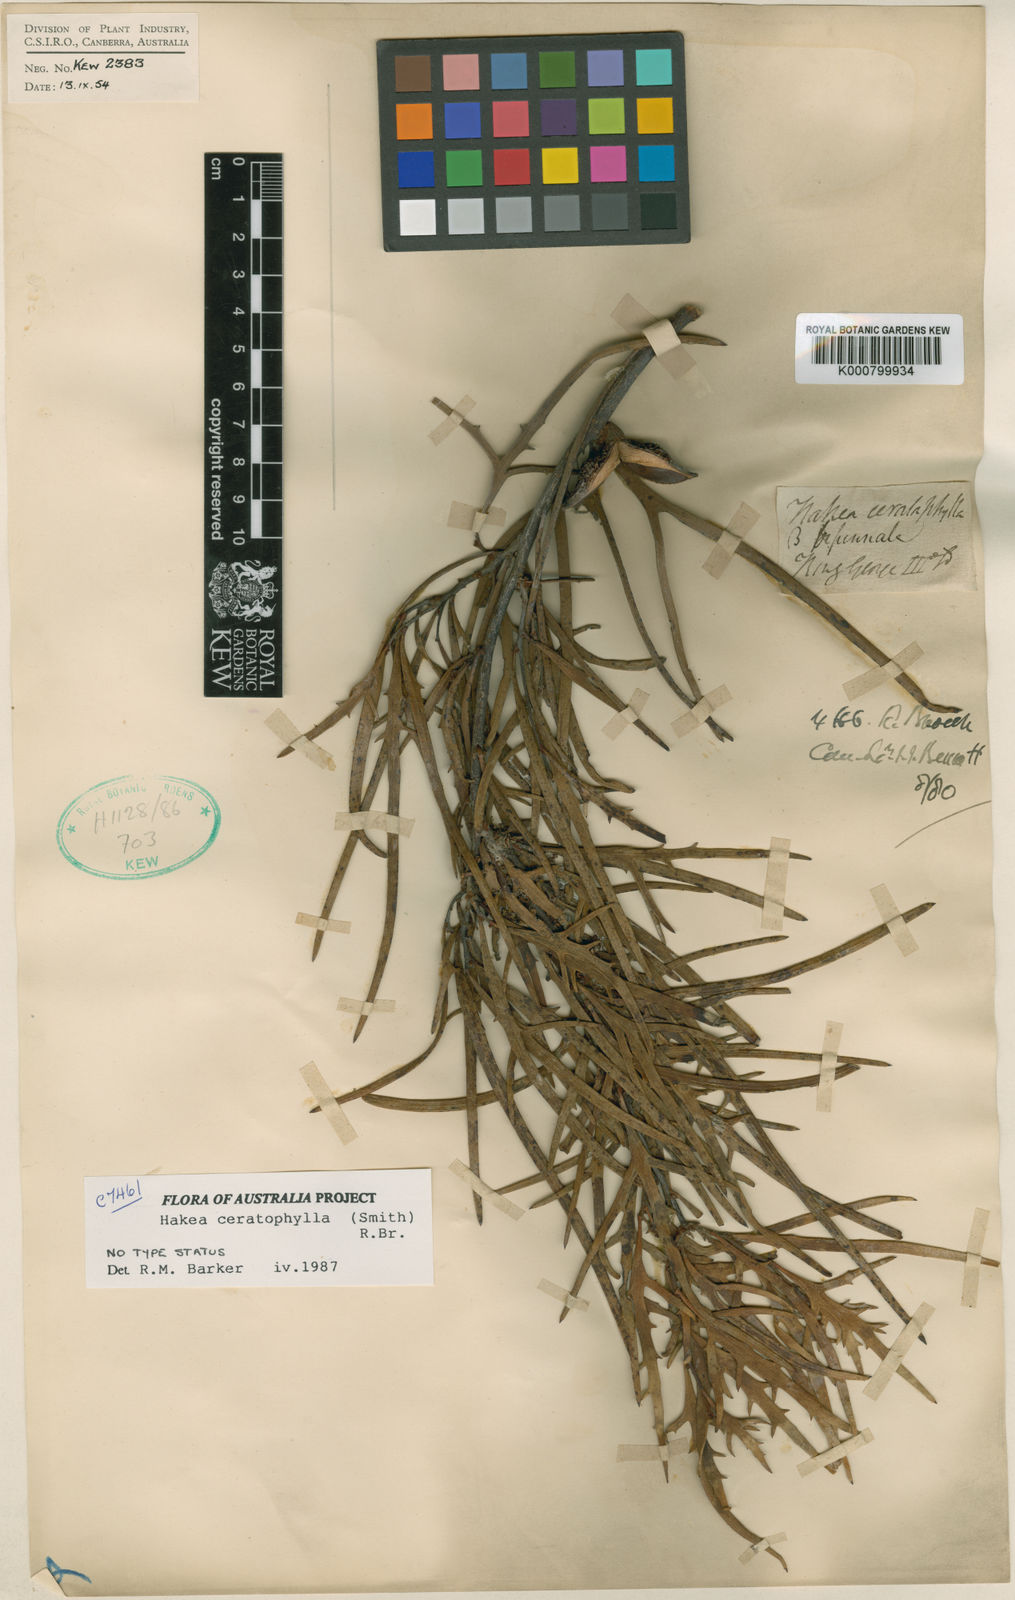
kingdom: Plantae
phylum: Tracheophyta
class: Magnoliopsida
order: Proteales
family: Proteaceae
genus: Hakea
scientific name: Hakea ceratophylla
